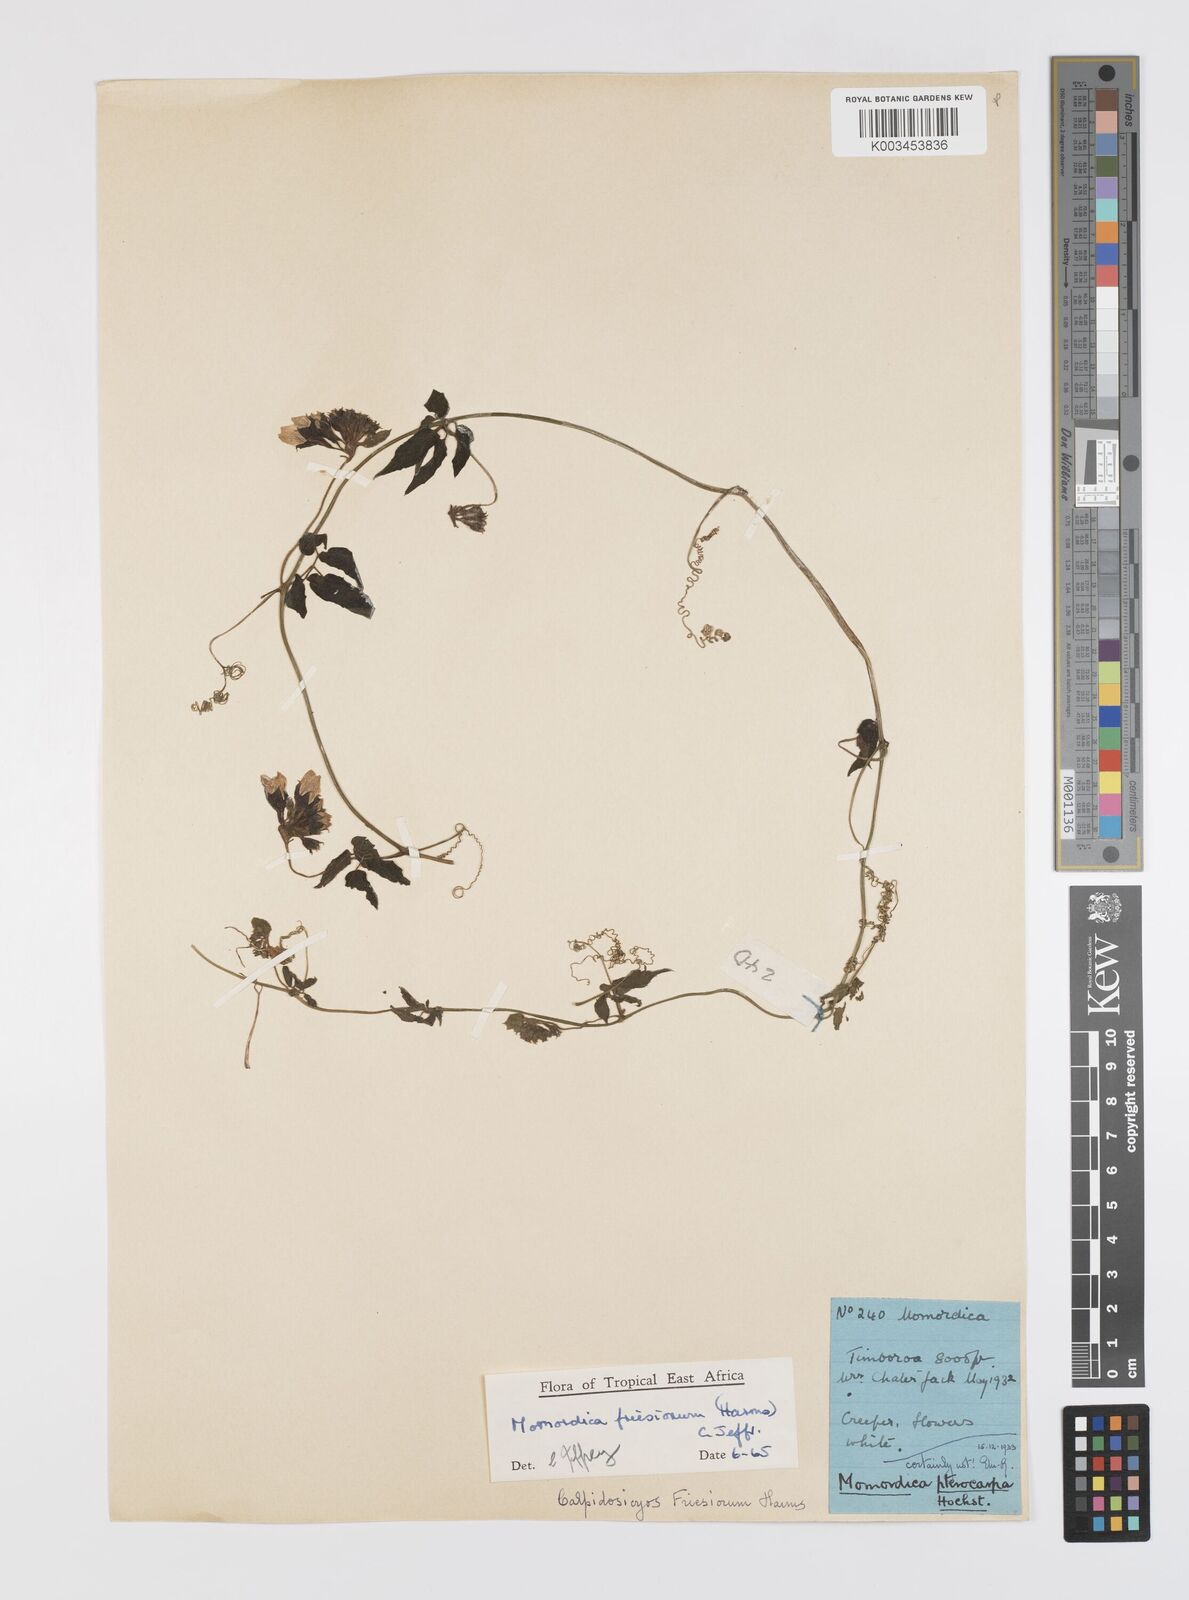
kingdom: Plantae
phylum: Tracheophyta
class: Magnoliopsida
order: Cucurbitales
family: Cucurbitaceae
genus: Momordica
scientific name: Momordica friesiorum
